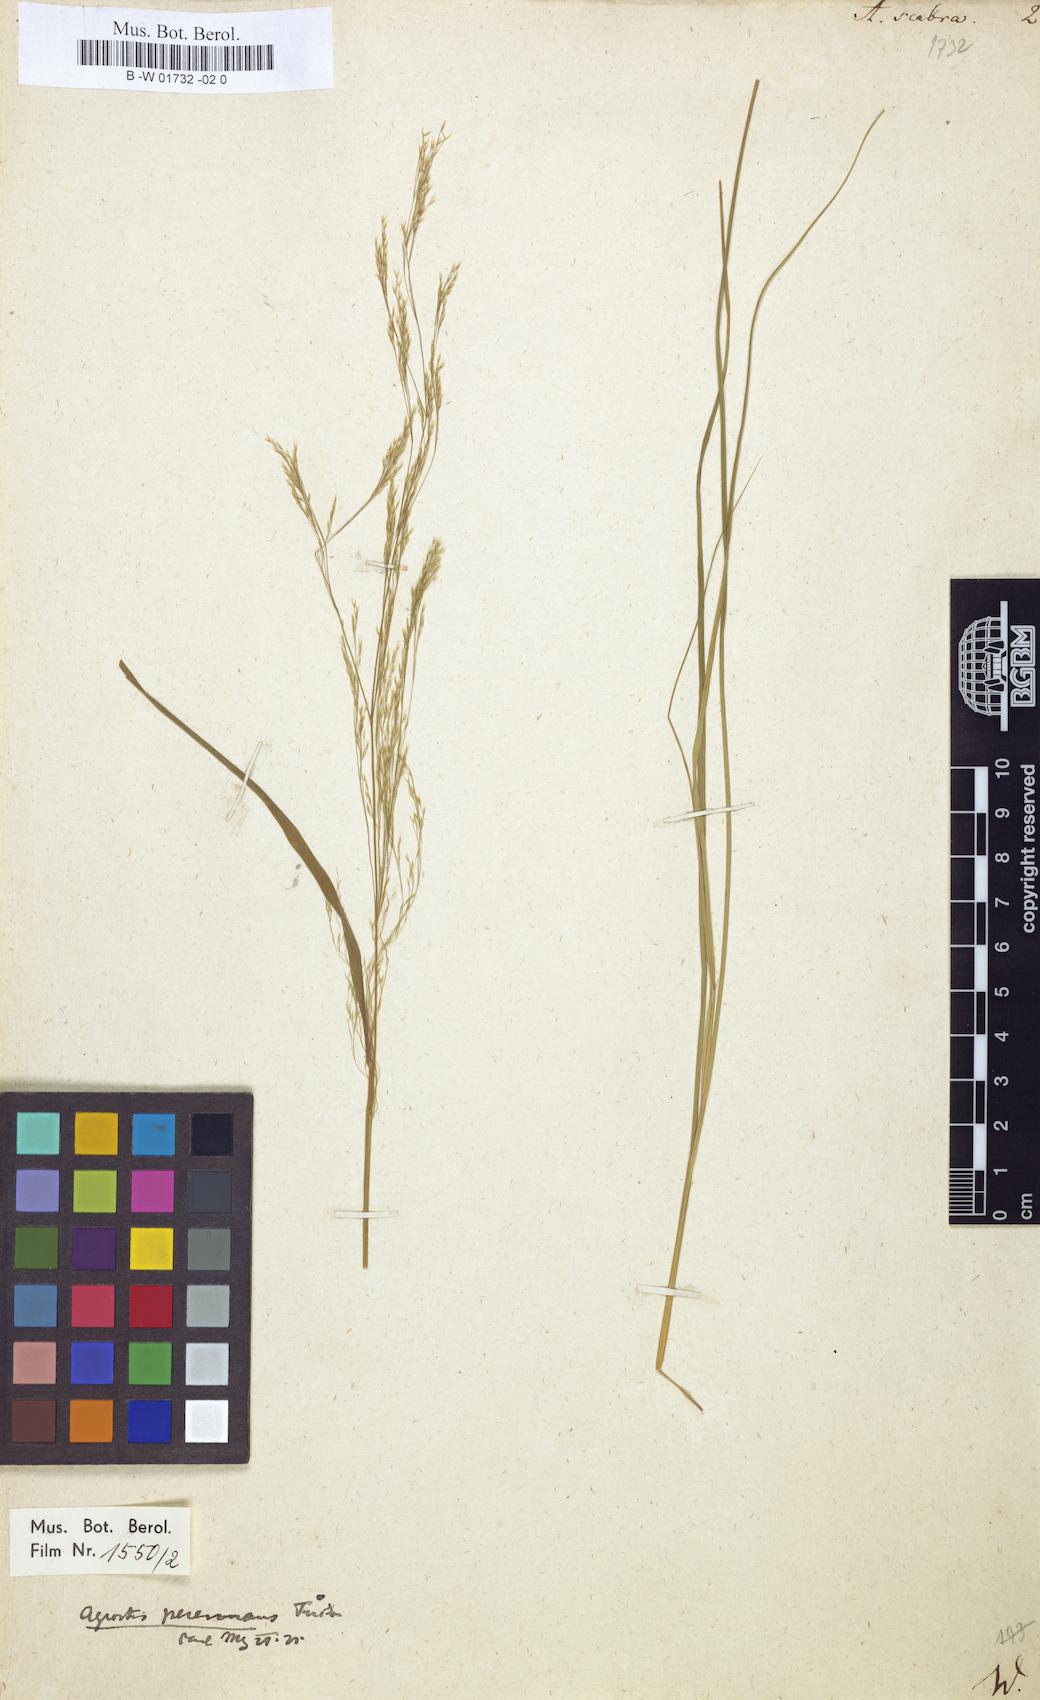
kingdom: Plantae
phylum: Tracheophyta
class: Liliopsida
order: Poales
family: Poaceae
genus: Agrostis
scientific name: Agrostis scabra
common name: Rough bent
